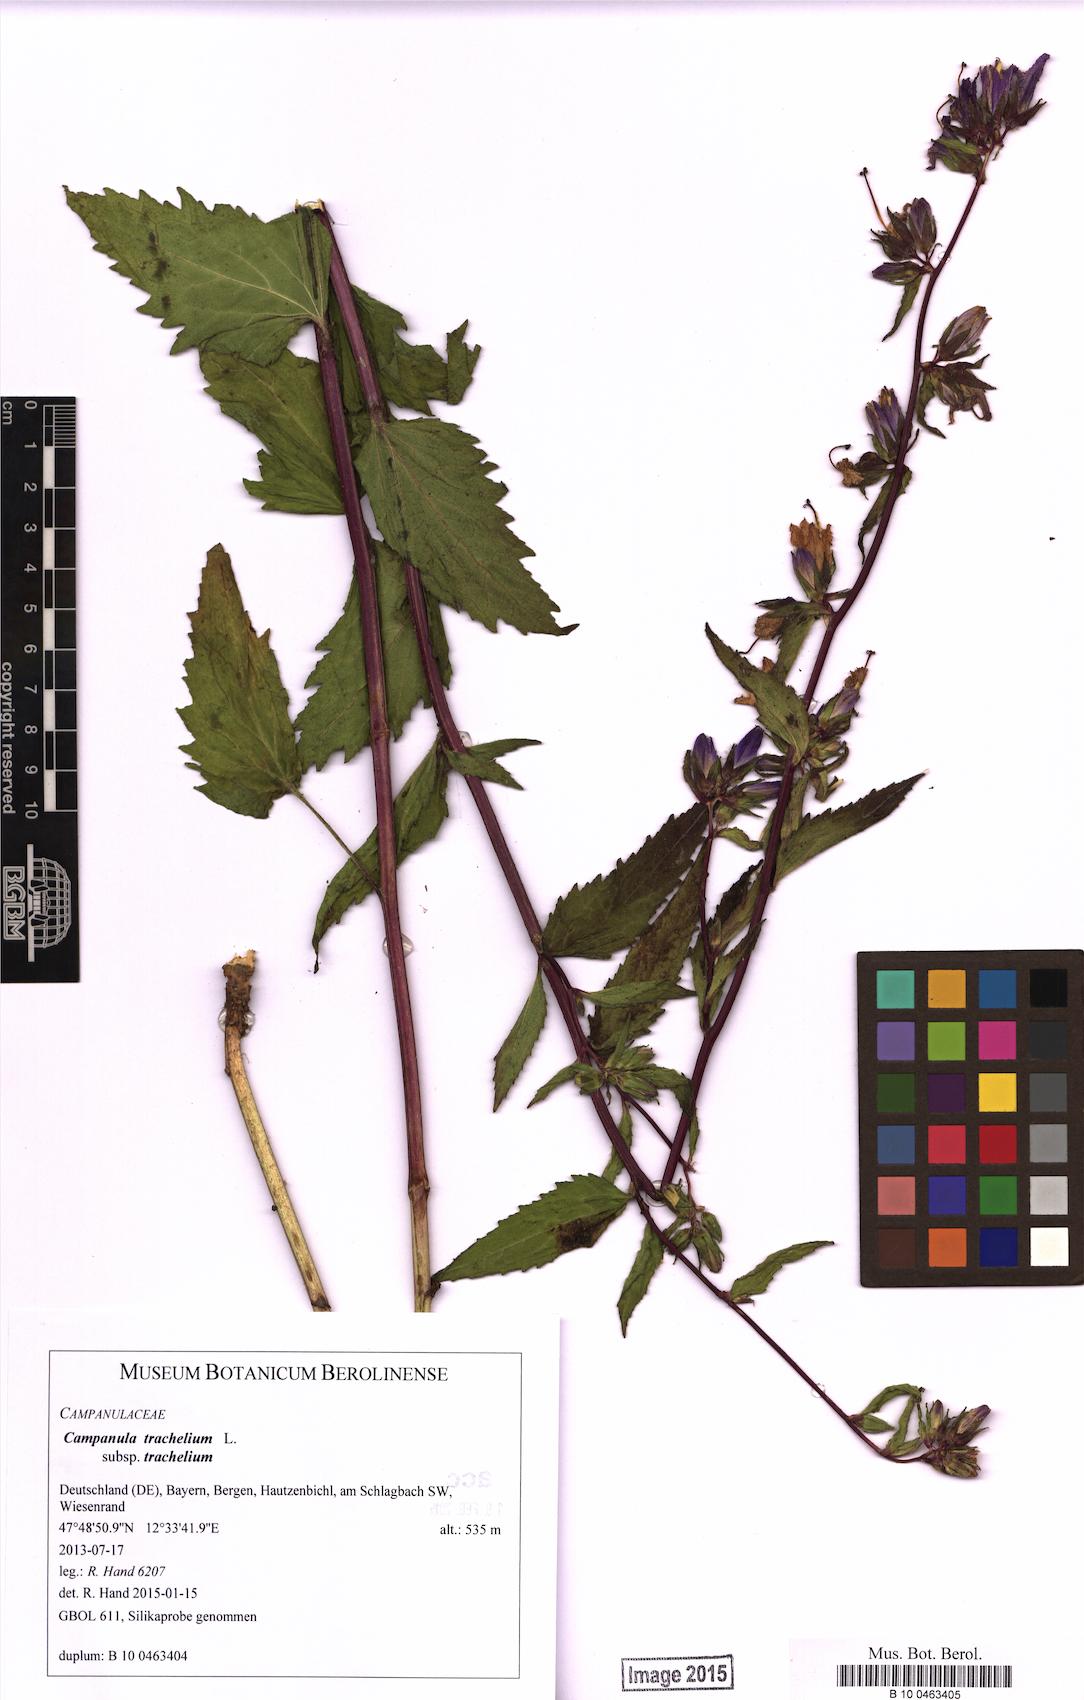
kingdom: Plantae
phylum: Tracheophyta
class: Magnoliopsida
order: Asterales
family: Campanulaceae
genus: Campanula
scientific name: Campanula trachelium
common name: Nettle-leaved bellflower
